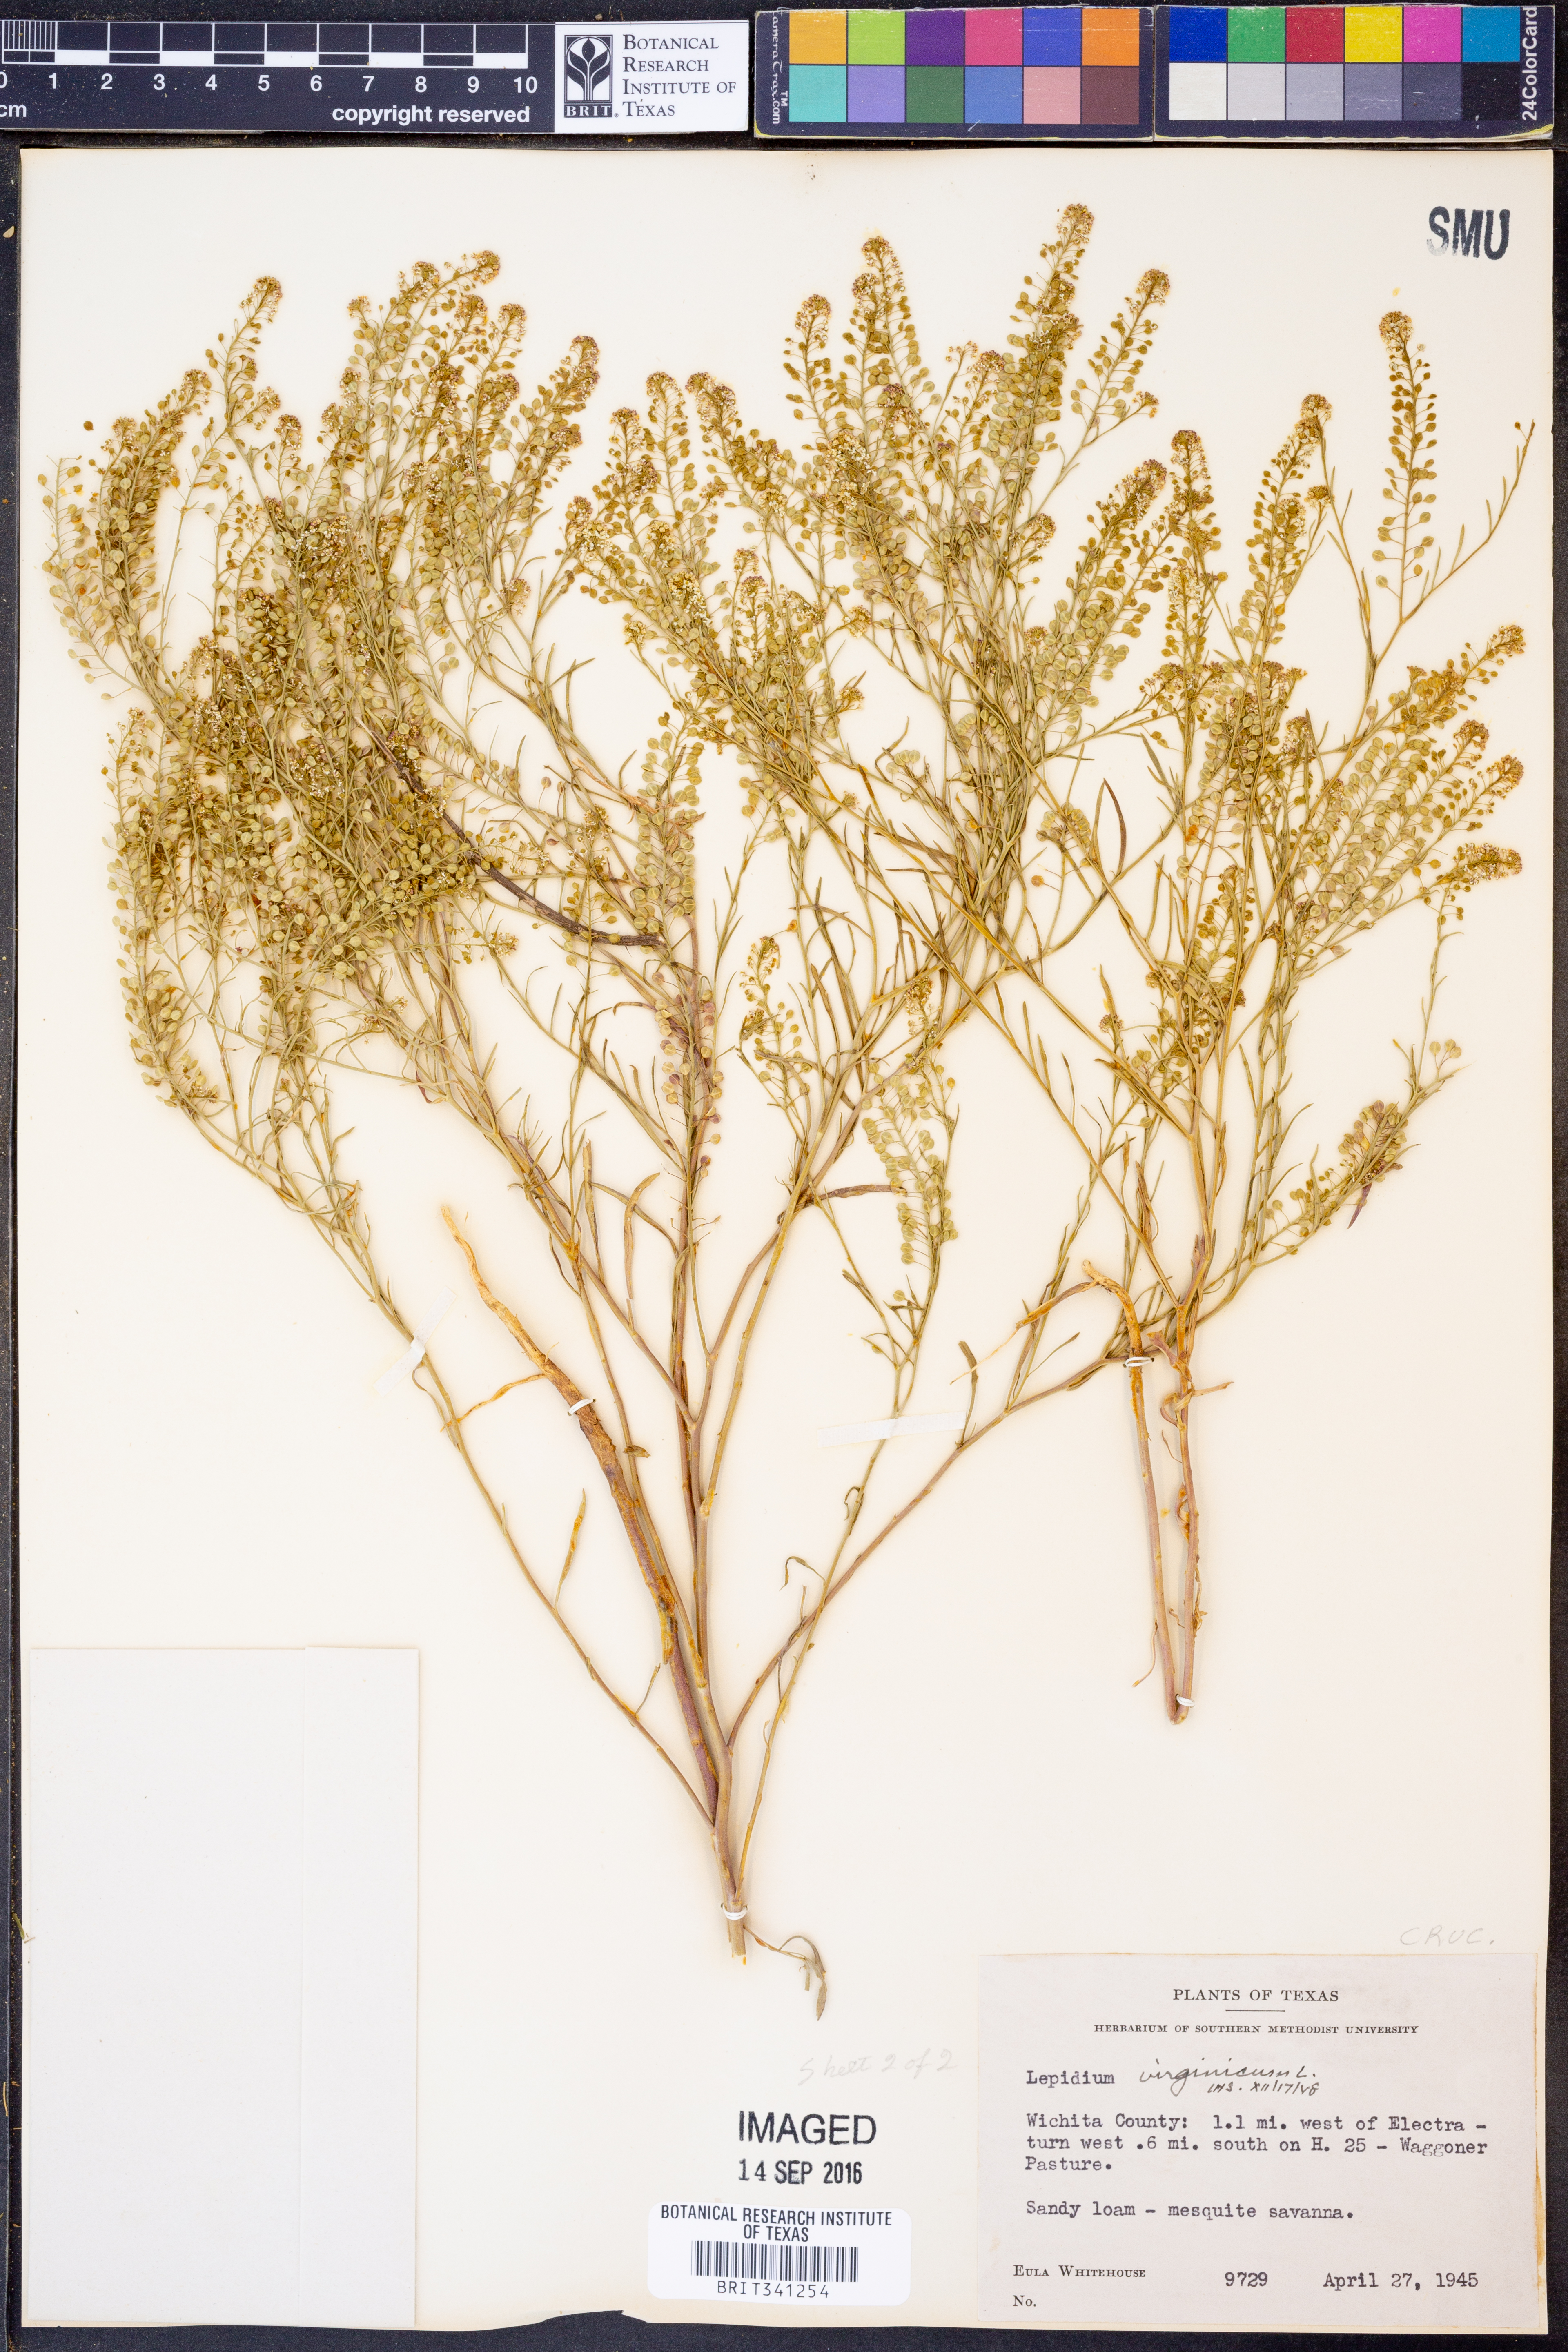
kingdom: Plantae
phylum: Tracheophyta
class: Magnoliopsida
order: Brassicales
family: Brassicaceae
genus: Lepidium
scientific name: Lepidium virginicum
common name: Least pepperwort
